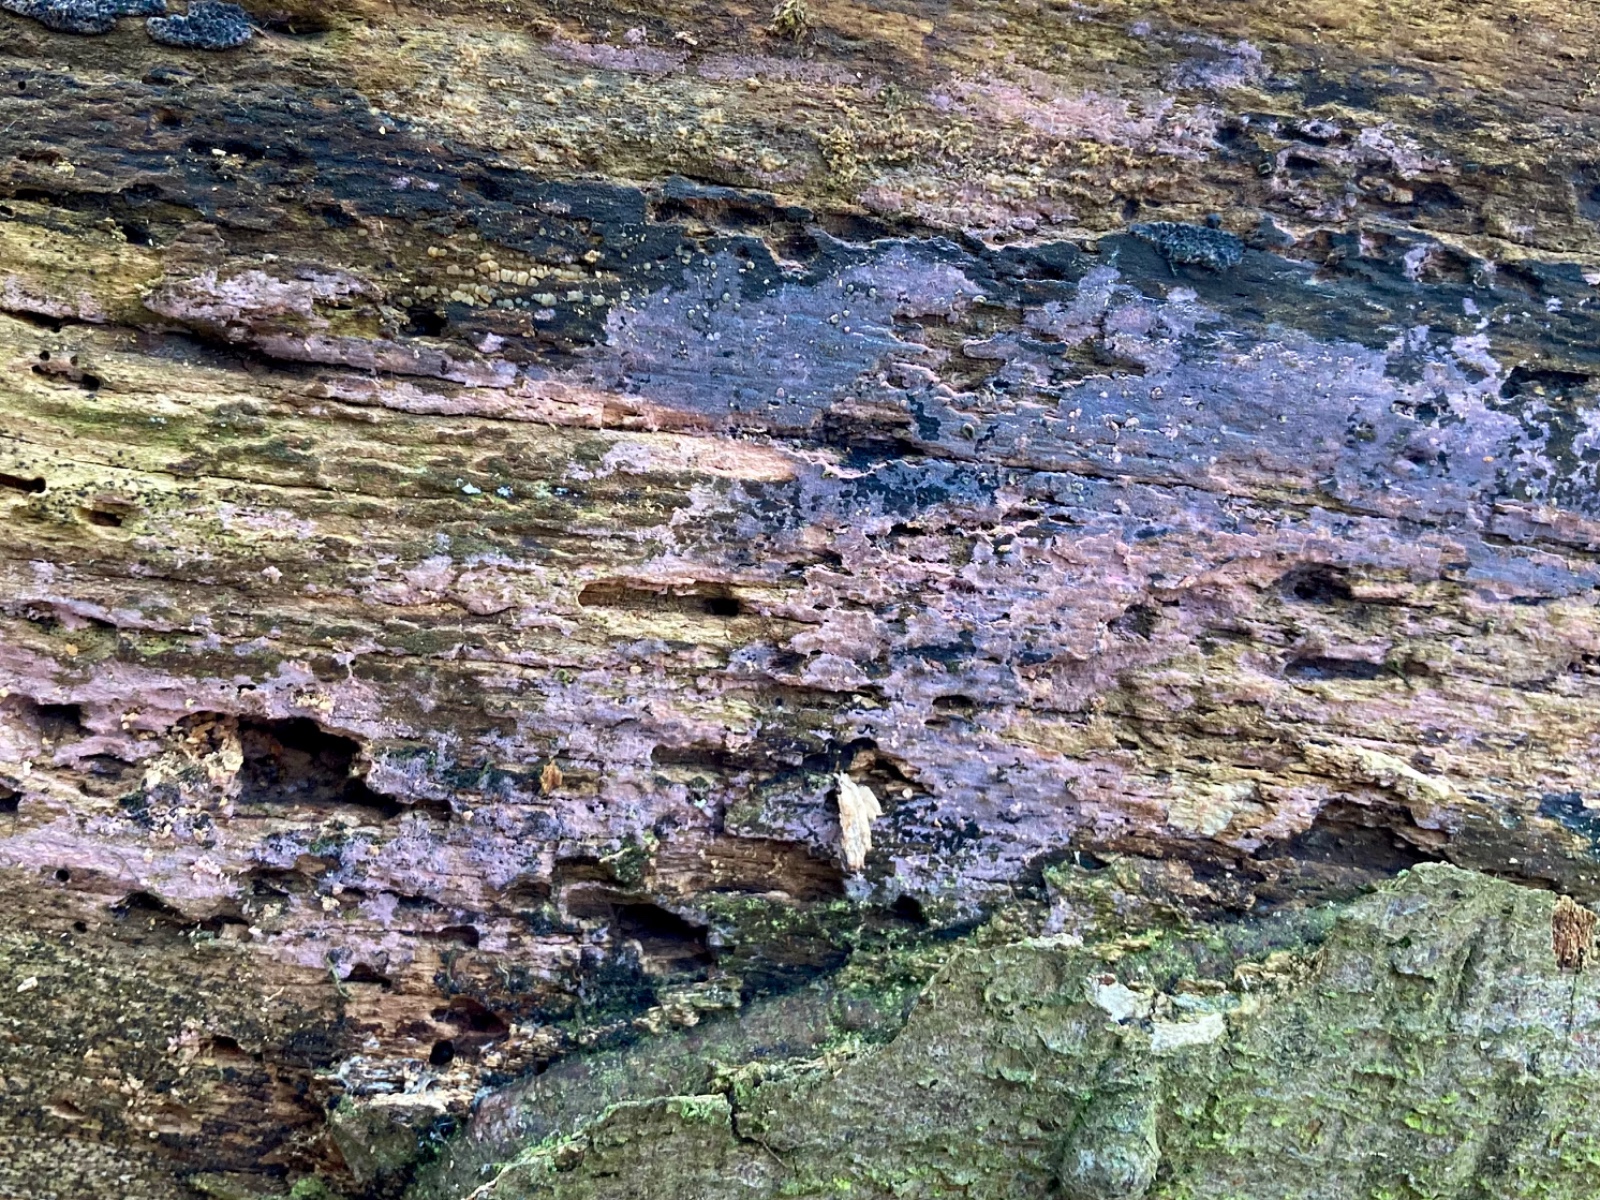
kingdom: Fungi
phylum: Basidiomycota
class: Agaricomycetes
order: Cantharellales
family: Tulasnellaceae
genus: Tulasnella
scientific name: Tulasnella violea
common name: violet ballonhinde
